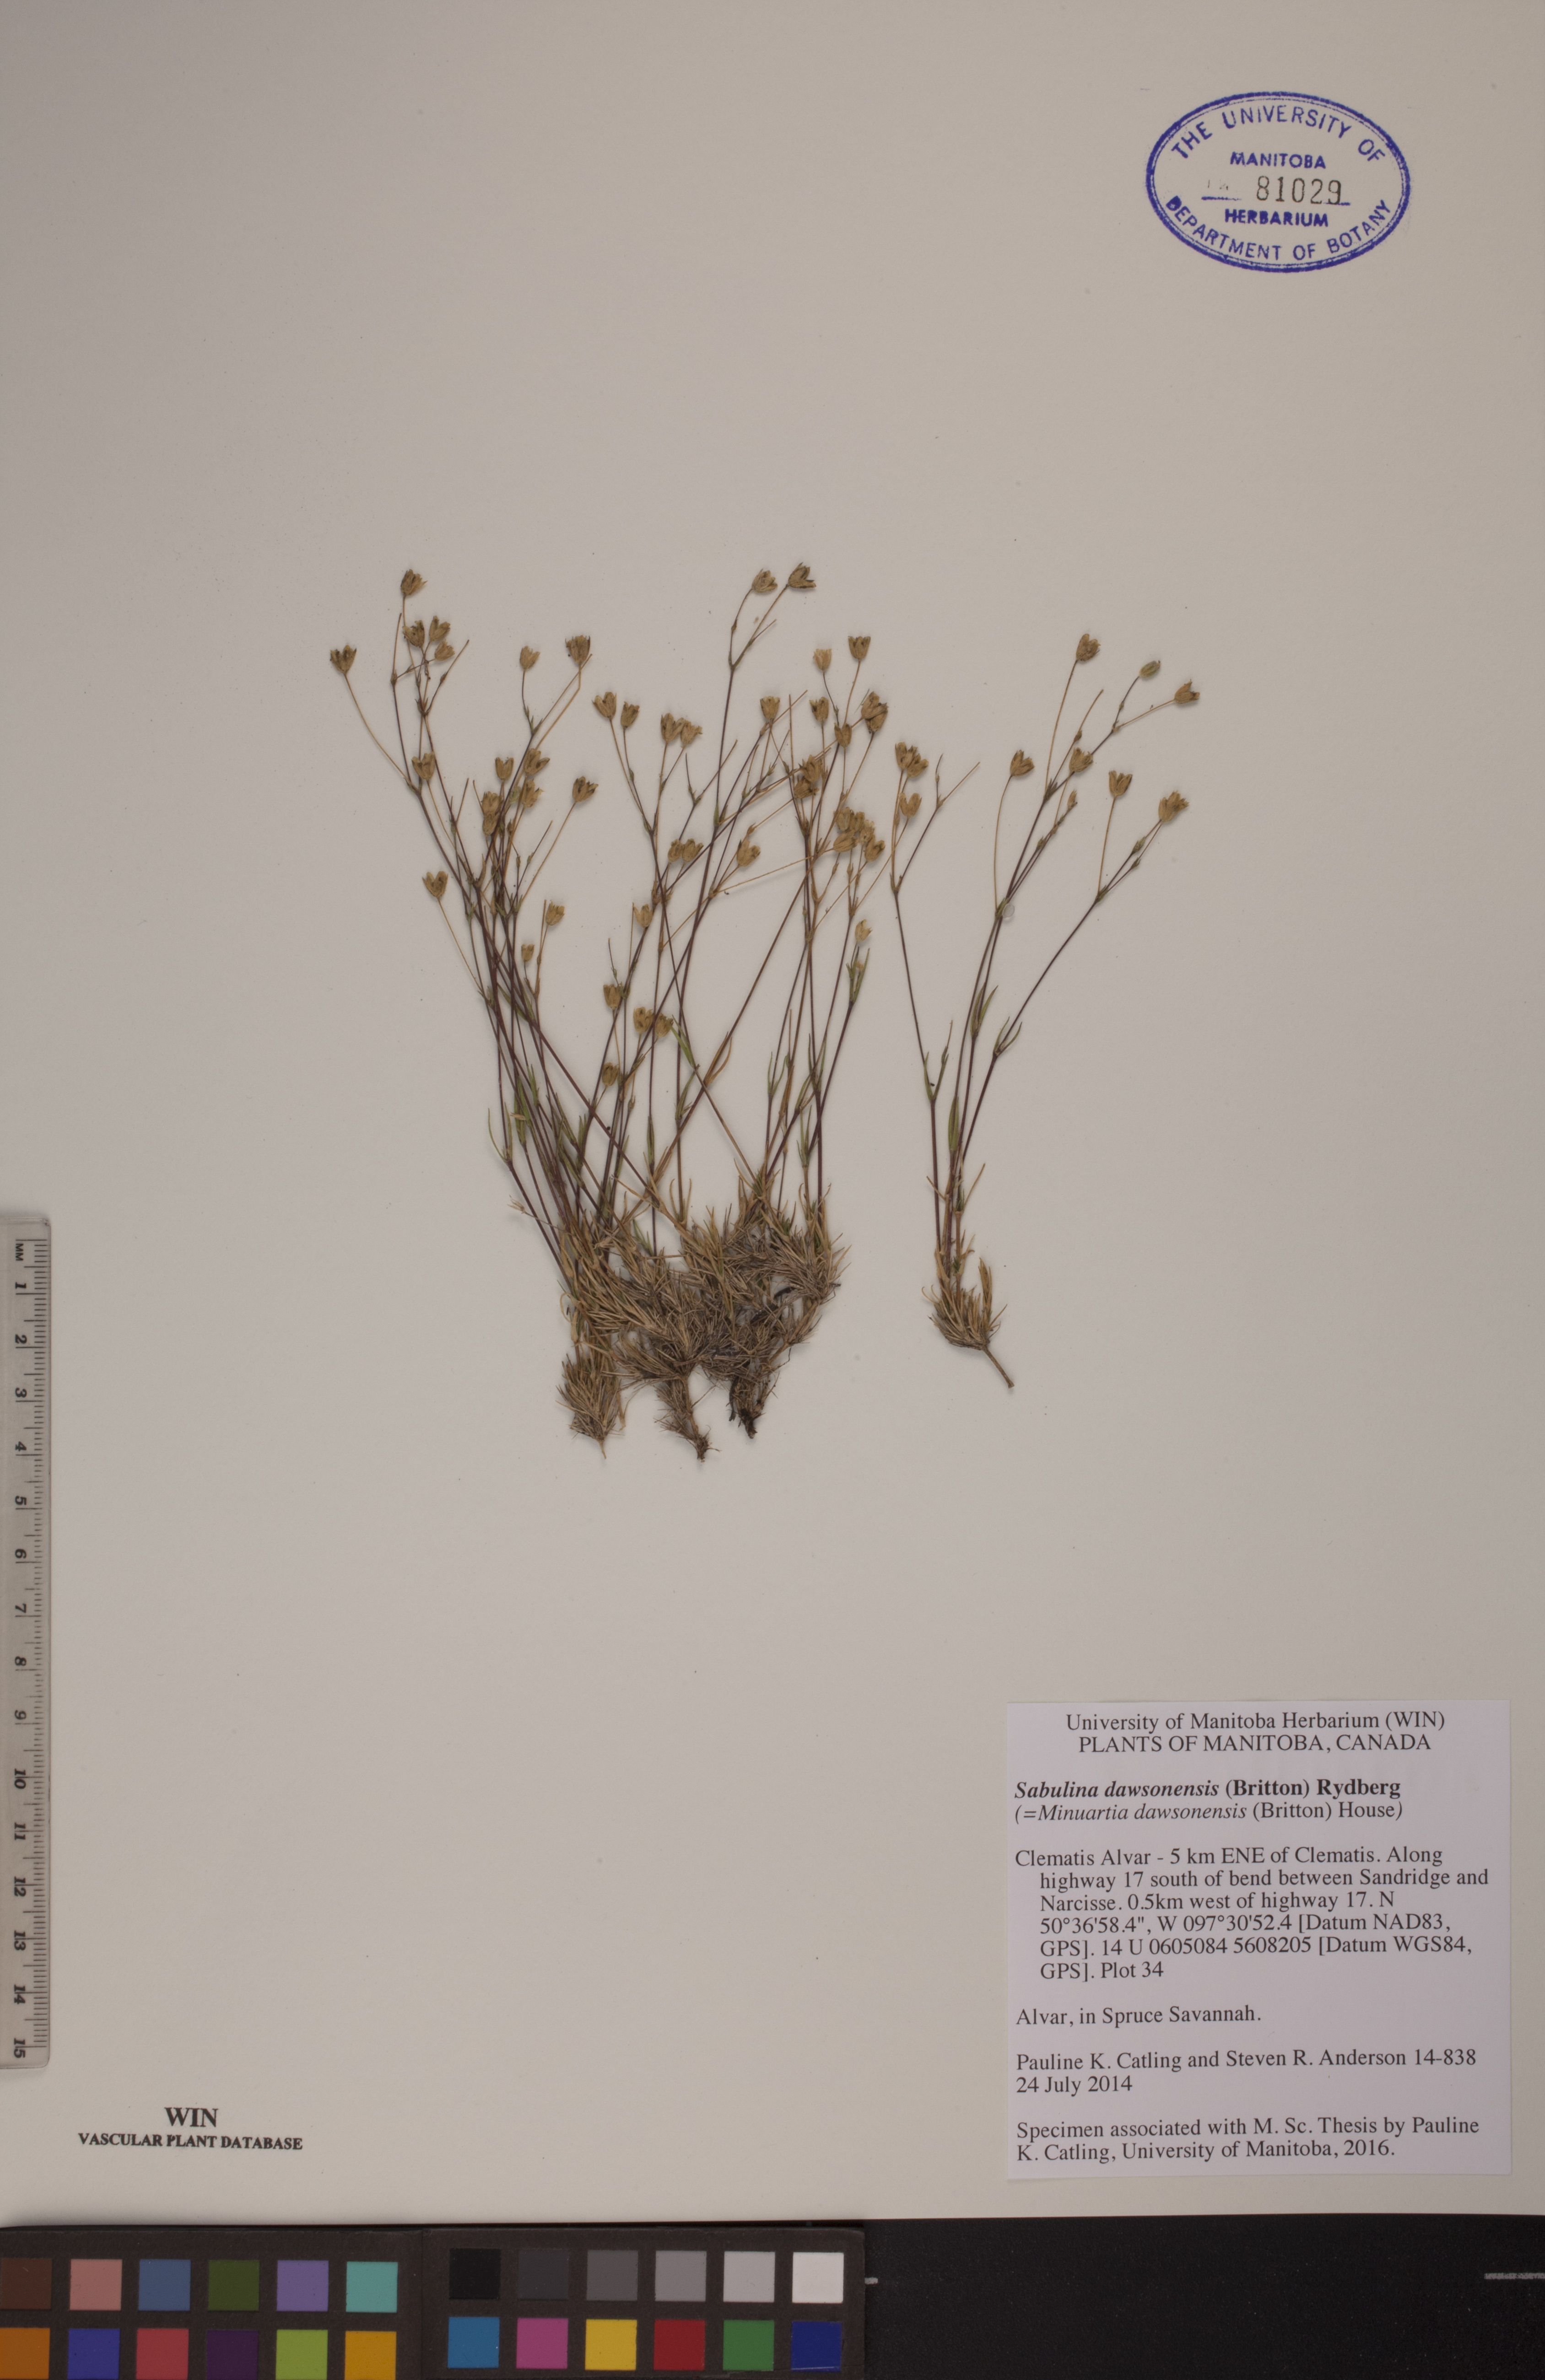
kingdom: Plantae
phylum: Tracheophyta
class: Magnoliopsida
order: Caryophyllales
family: Caryophyllaceae
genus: Sabulina
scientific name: Sabulina dawsonensis
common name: Dawson's cockle
